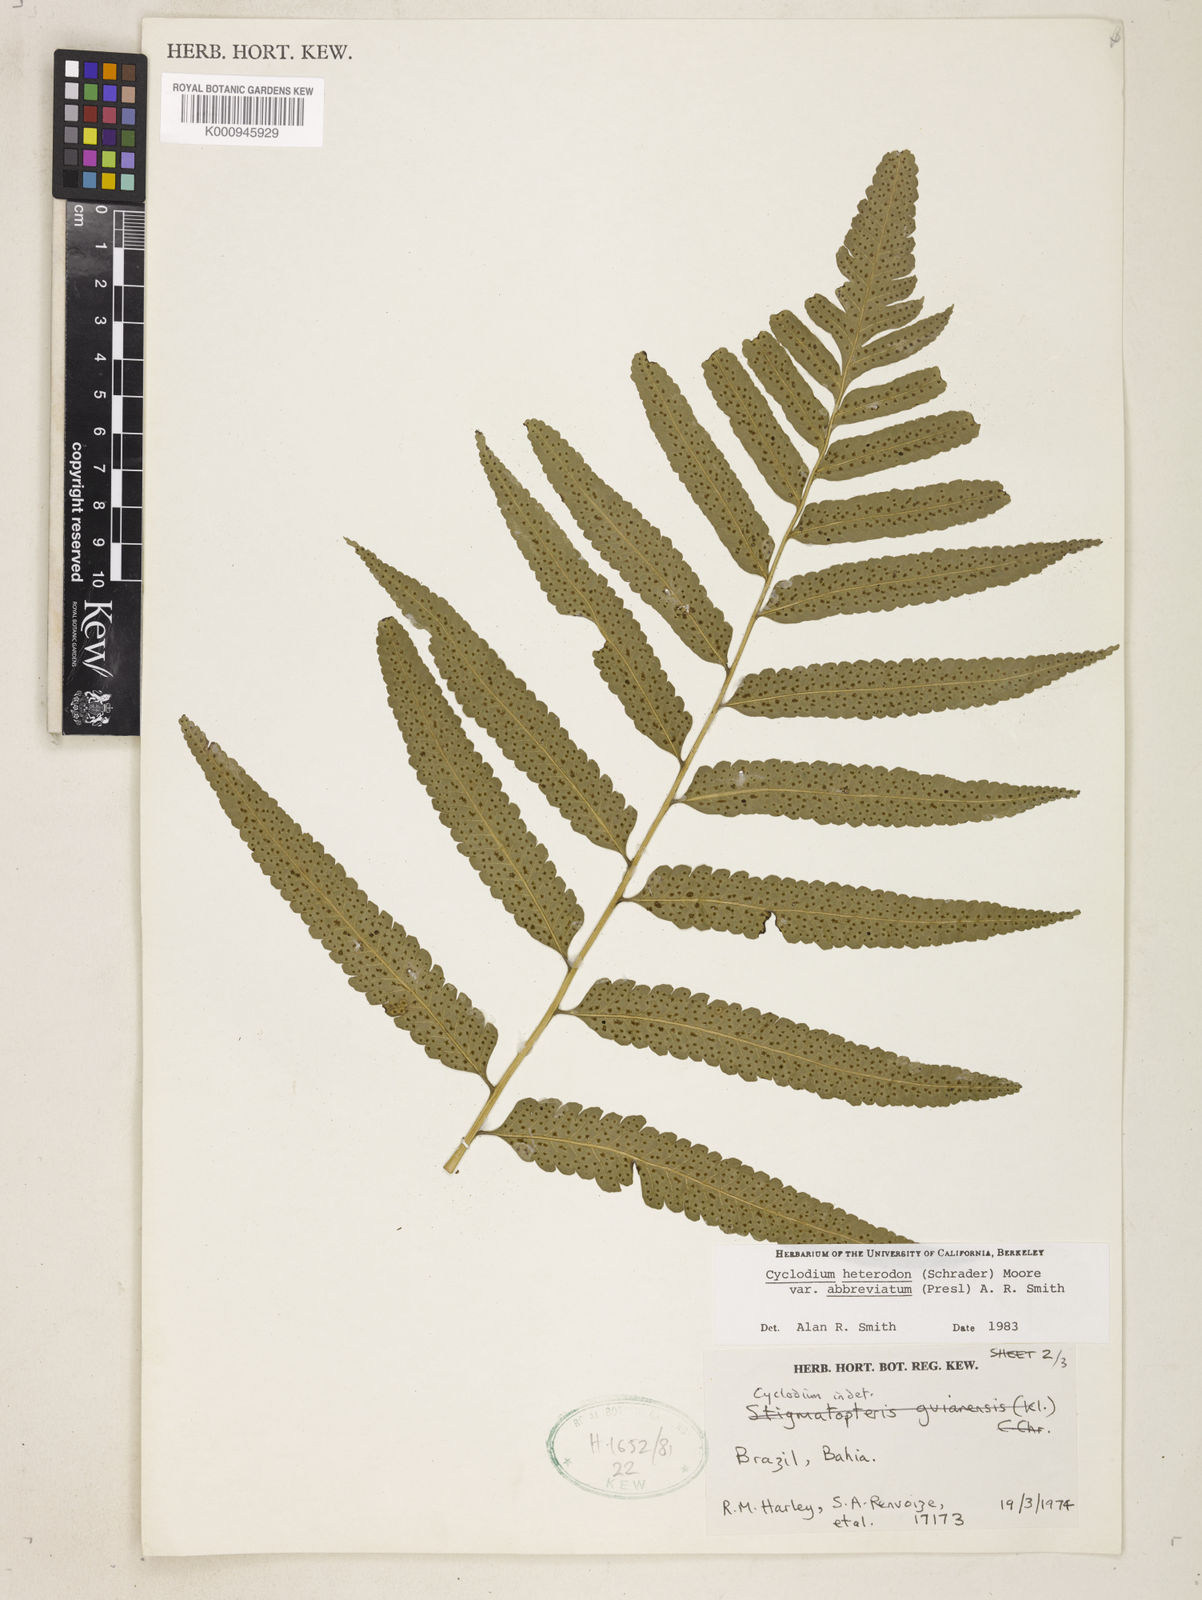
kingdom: Plantae
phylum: Tracheophyta
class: Polypodiopsida
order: Polypodiales
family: Dryopteridaceae
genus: Cyclodium
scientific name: Cyclodium heterodon
